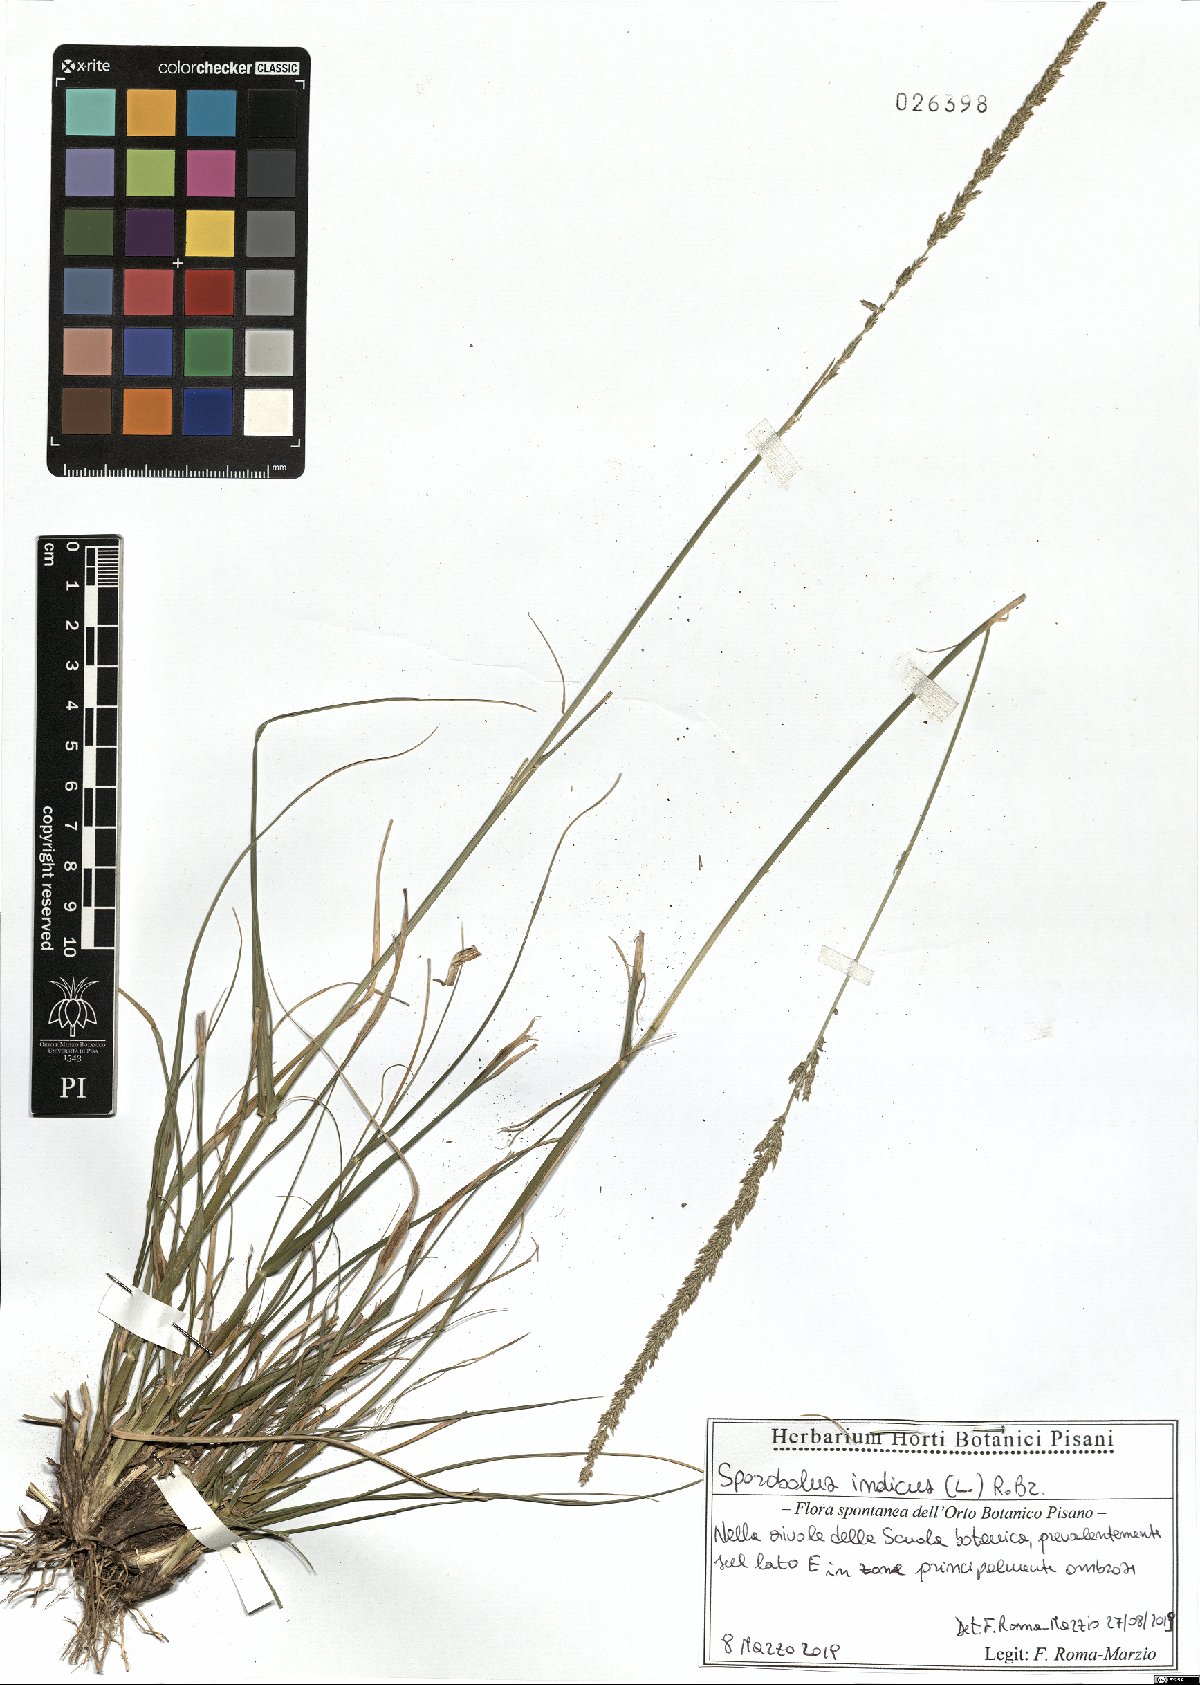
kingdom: Plantae
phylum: Tracheophyta
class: Liliopsida
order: Poales
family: Poaceae
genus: Sporobolus
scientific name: Sporobolus indicus
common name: Smut grass
